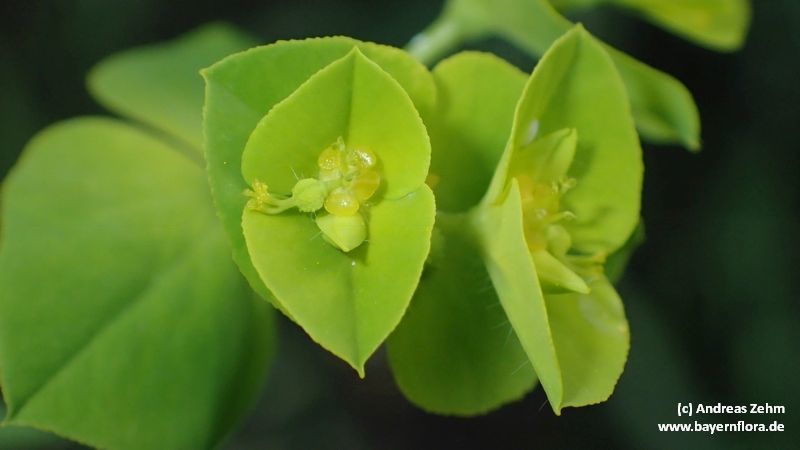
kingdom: Plantae
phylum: Tracheophyta
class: Magnoliopsida
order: Malpighiales
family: Euphorbiaceae
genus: Euphorbia
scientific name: Euphorbia platyphyllos
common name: Broad-leaved spurge
